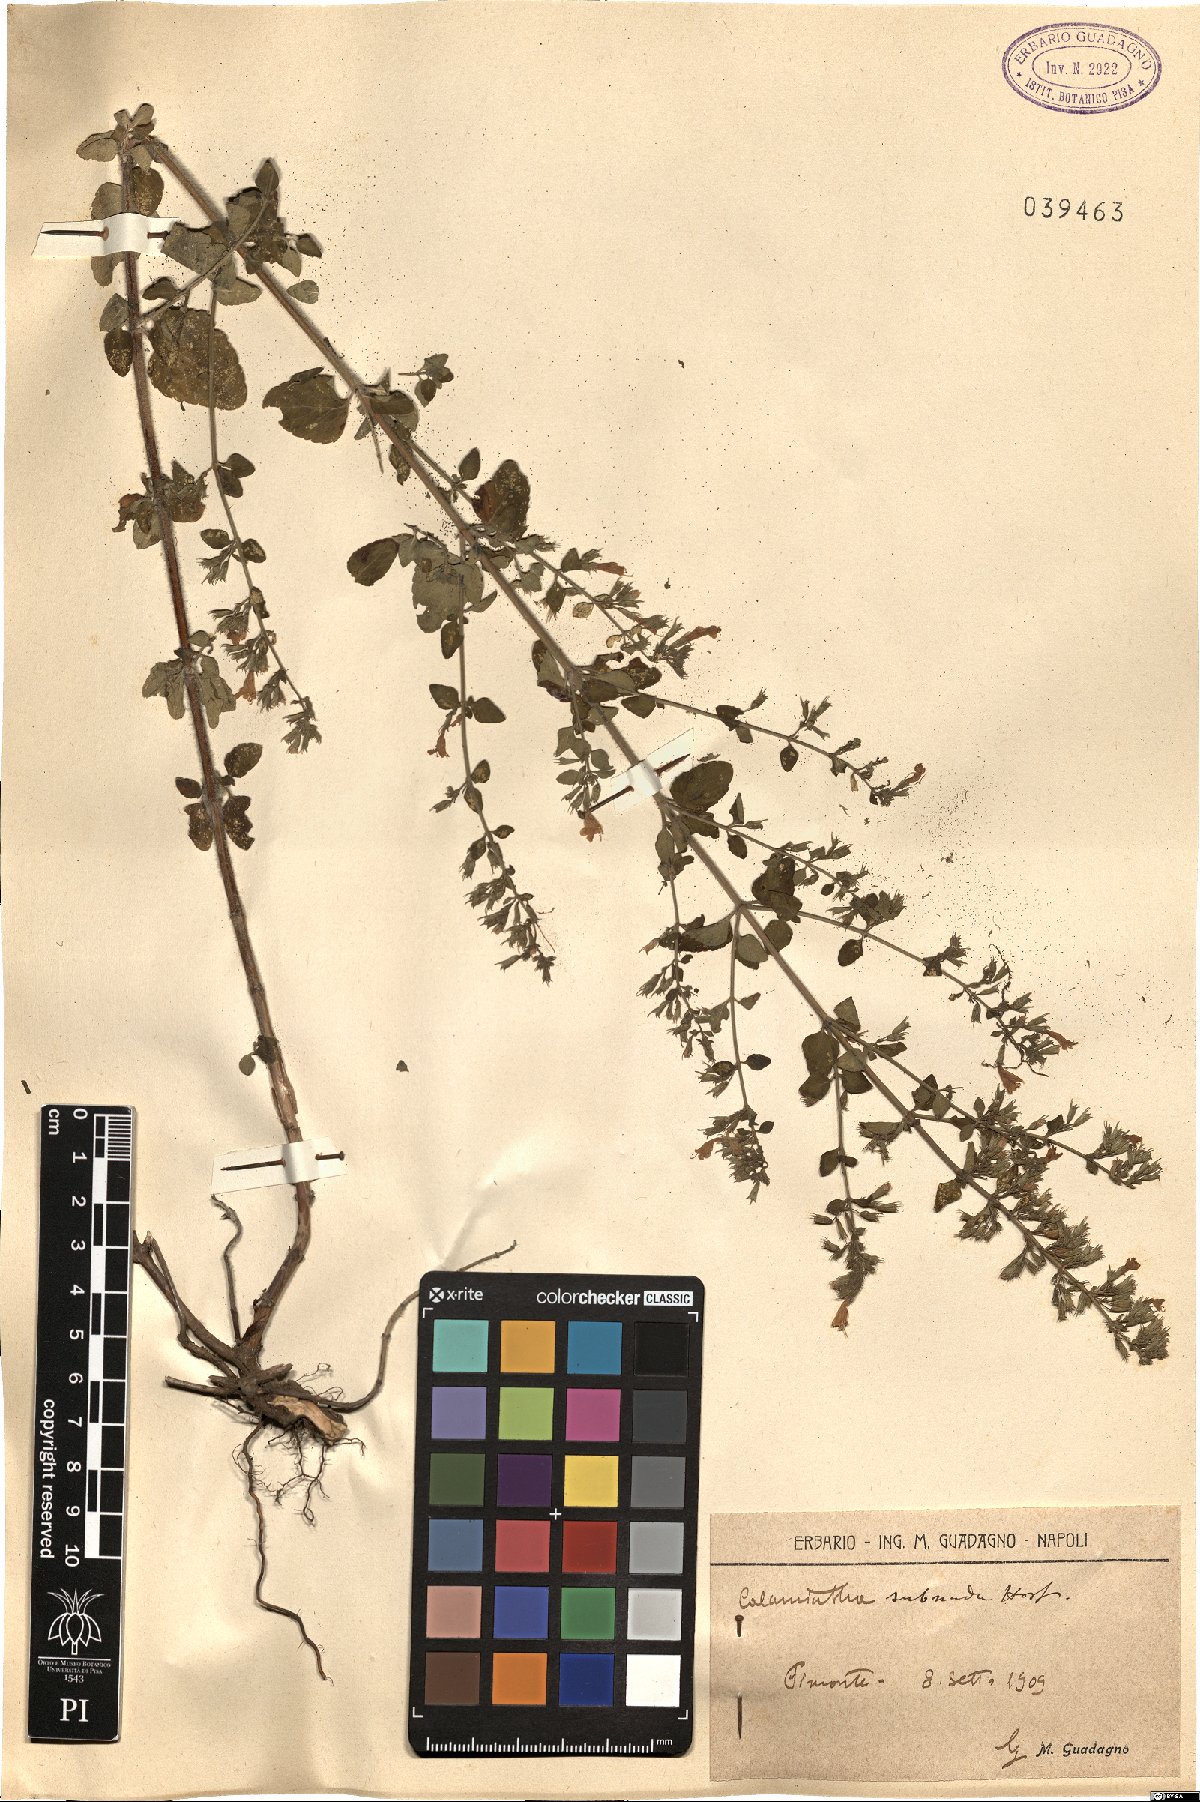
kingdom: Plantae
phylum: Tracheophyta
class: Magnoliopsida
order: Lamiales
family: Lamiaceae
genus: Clinopodium
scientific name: Clinopodium nepeta
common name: Lesser calamint
